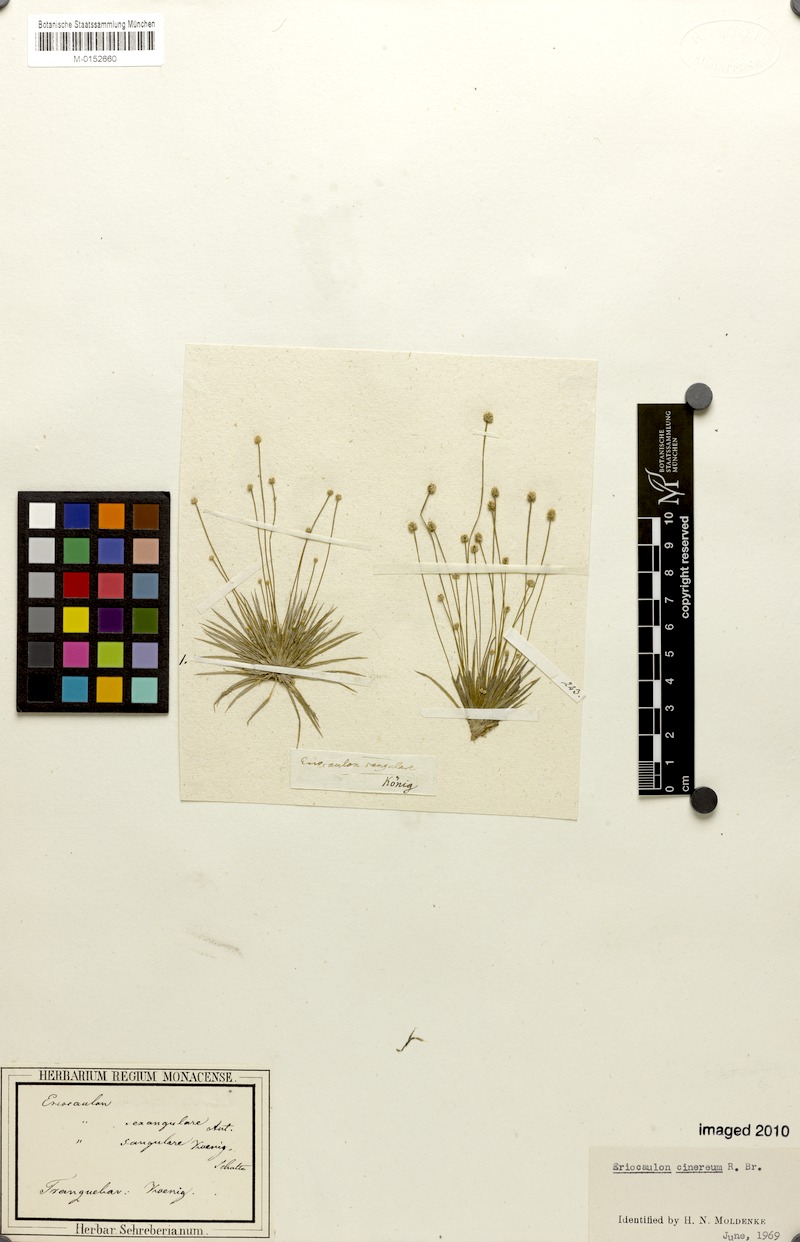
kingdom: Plantae
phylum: Tracheophyta
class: Liliopsida
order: Poales
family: Eriocaulaceae
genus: Eriocaulon
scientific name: Eriocaulon cinereum
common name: Ashy pipewort
